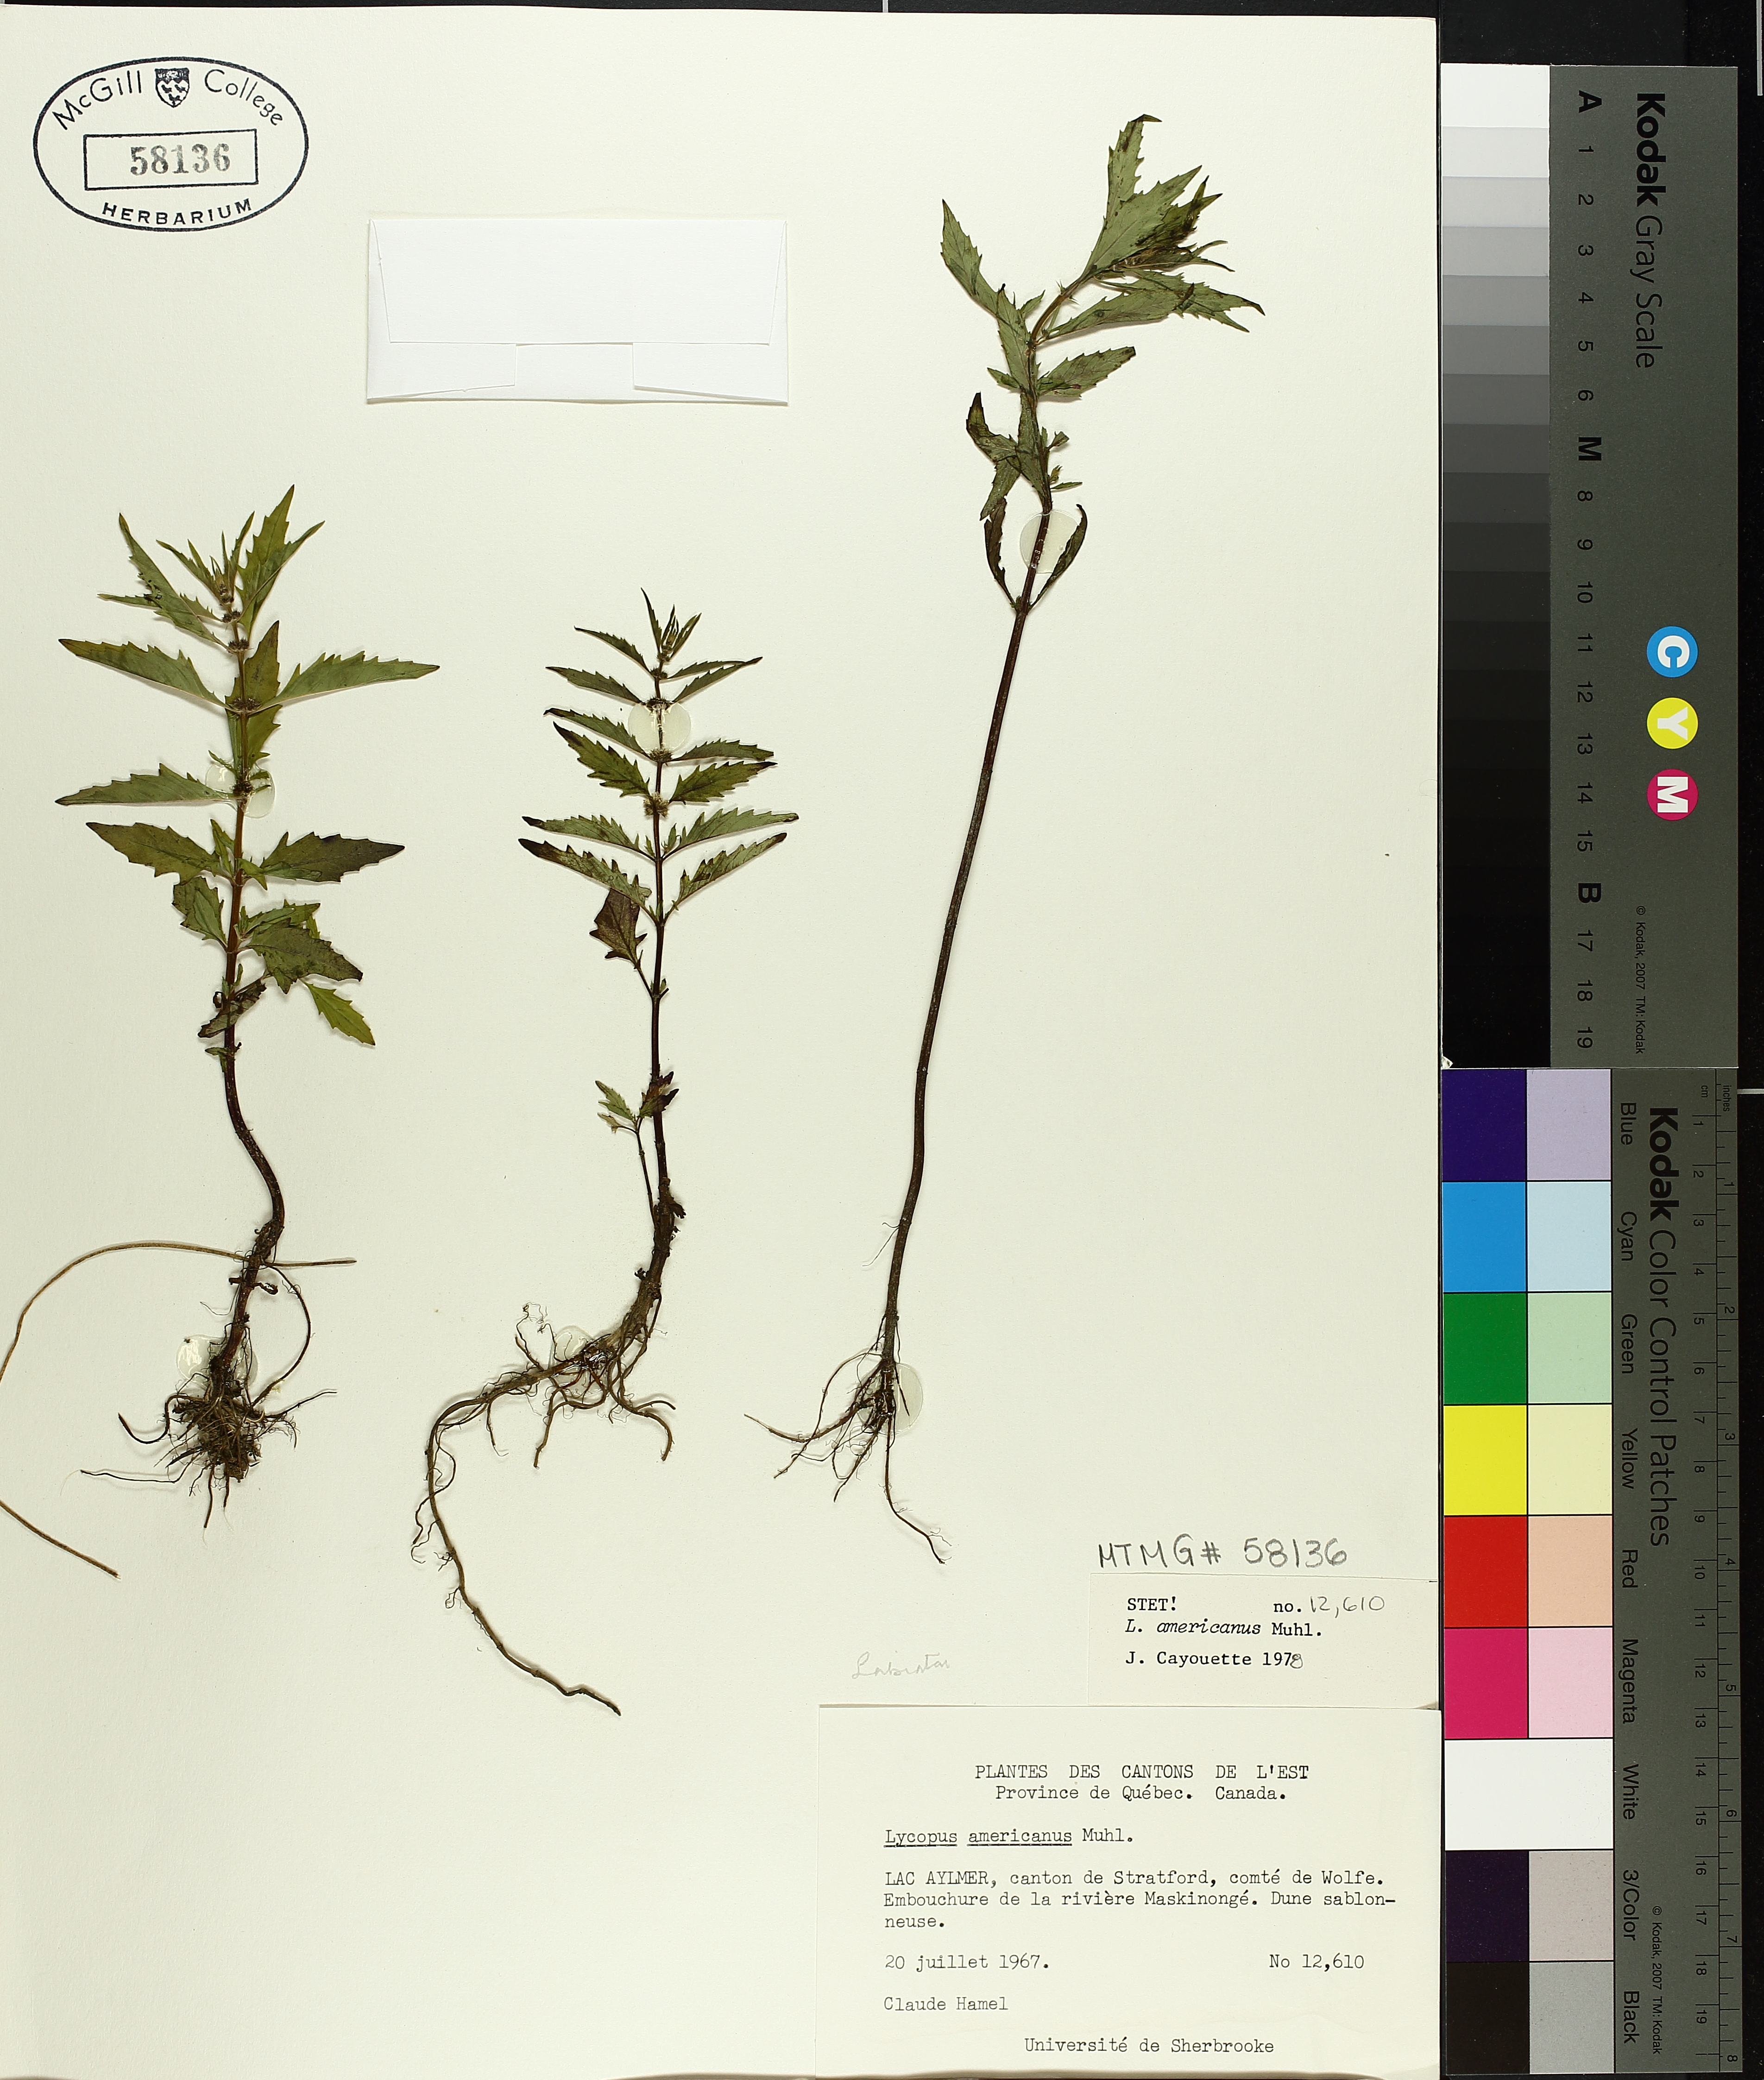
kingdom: Plantae
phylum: Tracheophyta
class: Magnoliopsida
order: Lamiales
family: Lamiaceae
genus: Lycopus
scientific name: Lycopus americanus
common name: American bugleweed
